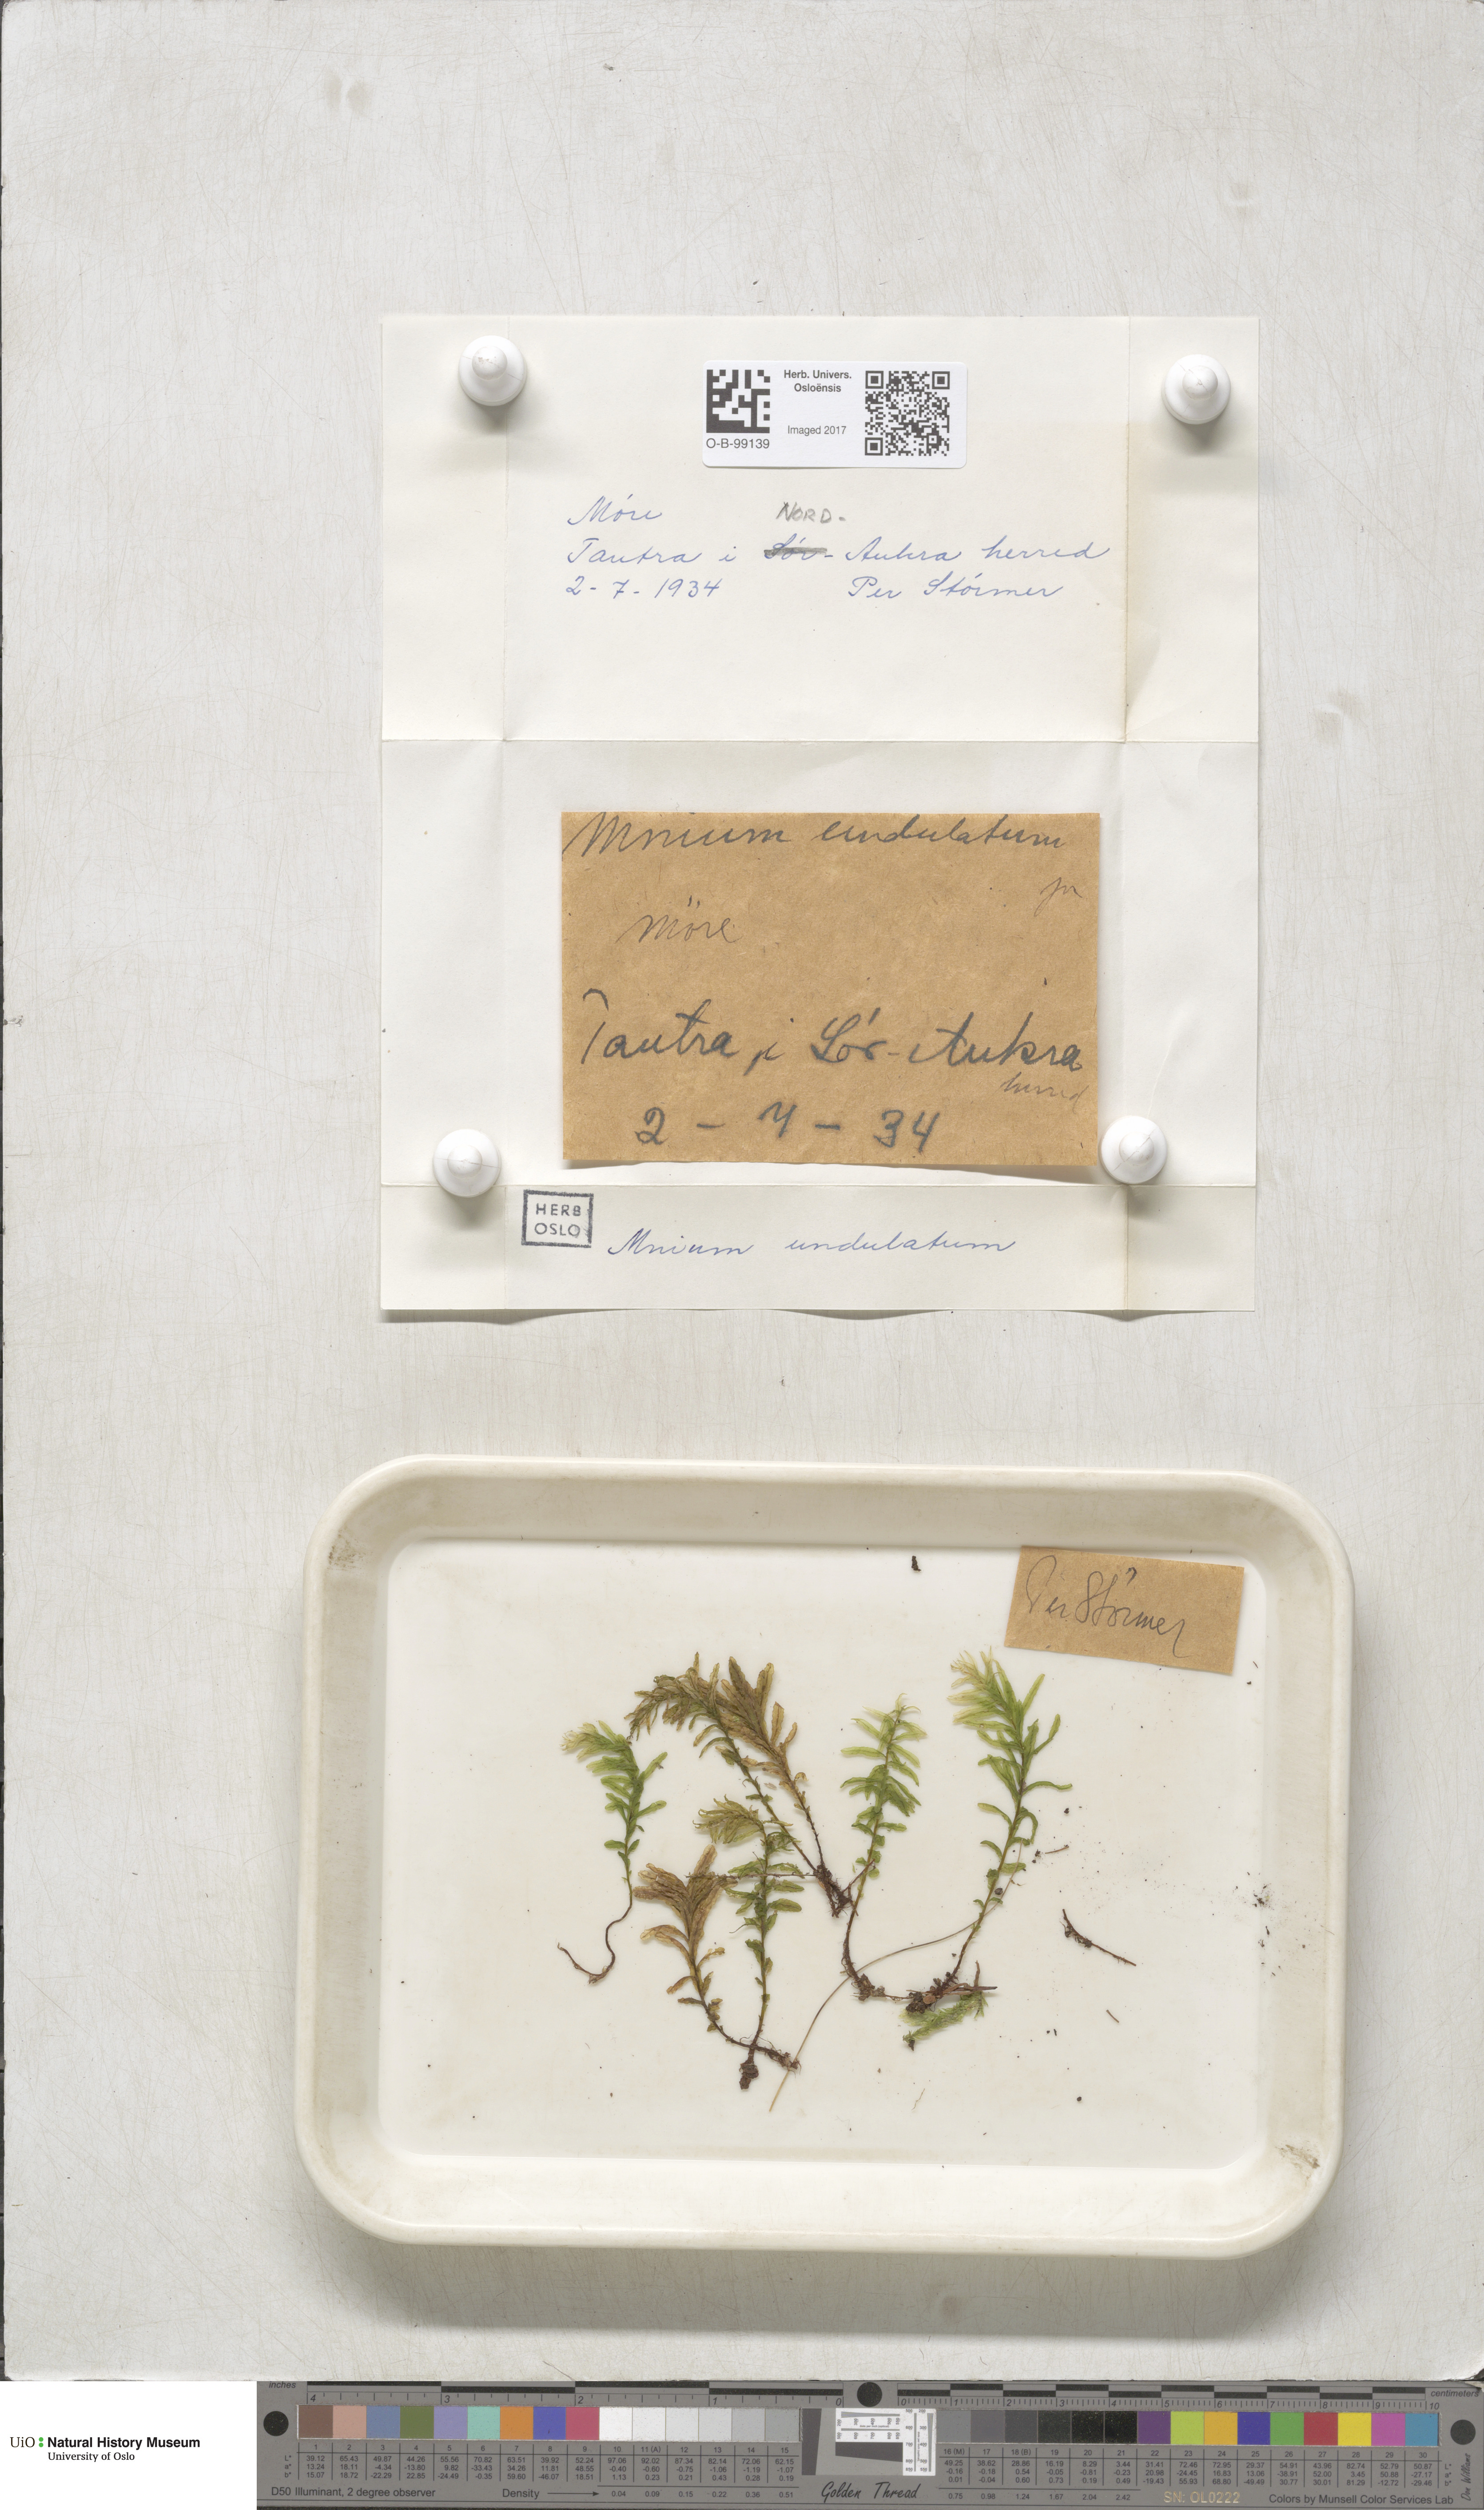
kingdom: Plantae
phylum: Bryophyta
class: Bryopsida
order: Bryales
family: Mniaceae
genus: Plagiomnium
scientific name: Plagiomnium undulatum
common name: Hart's-tongue thyme-moss
